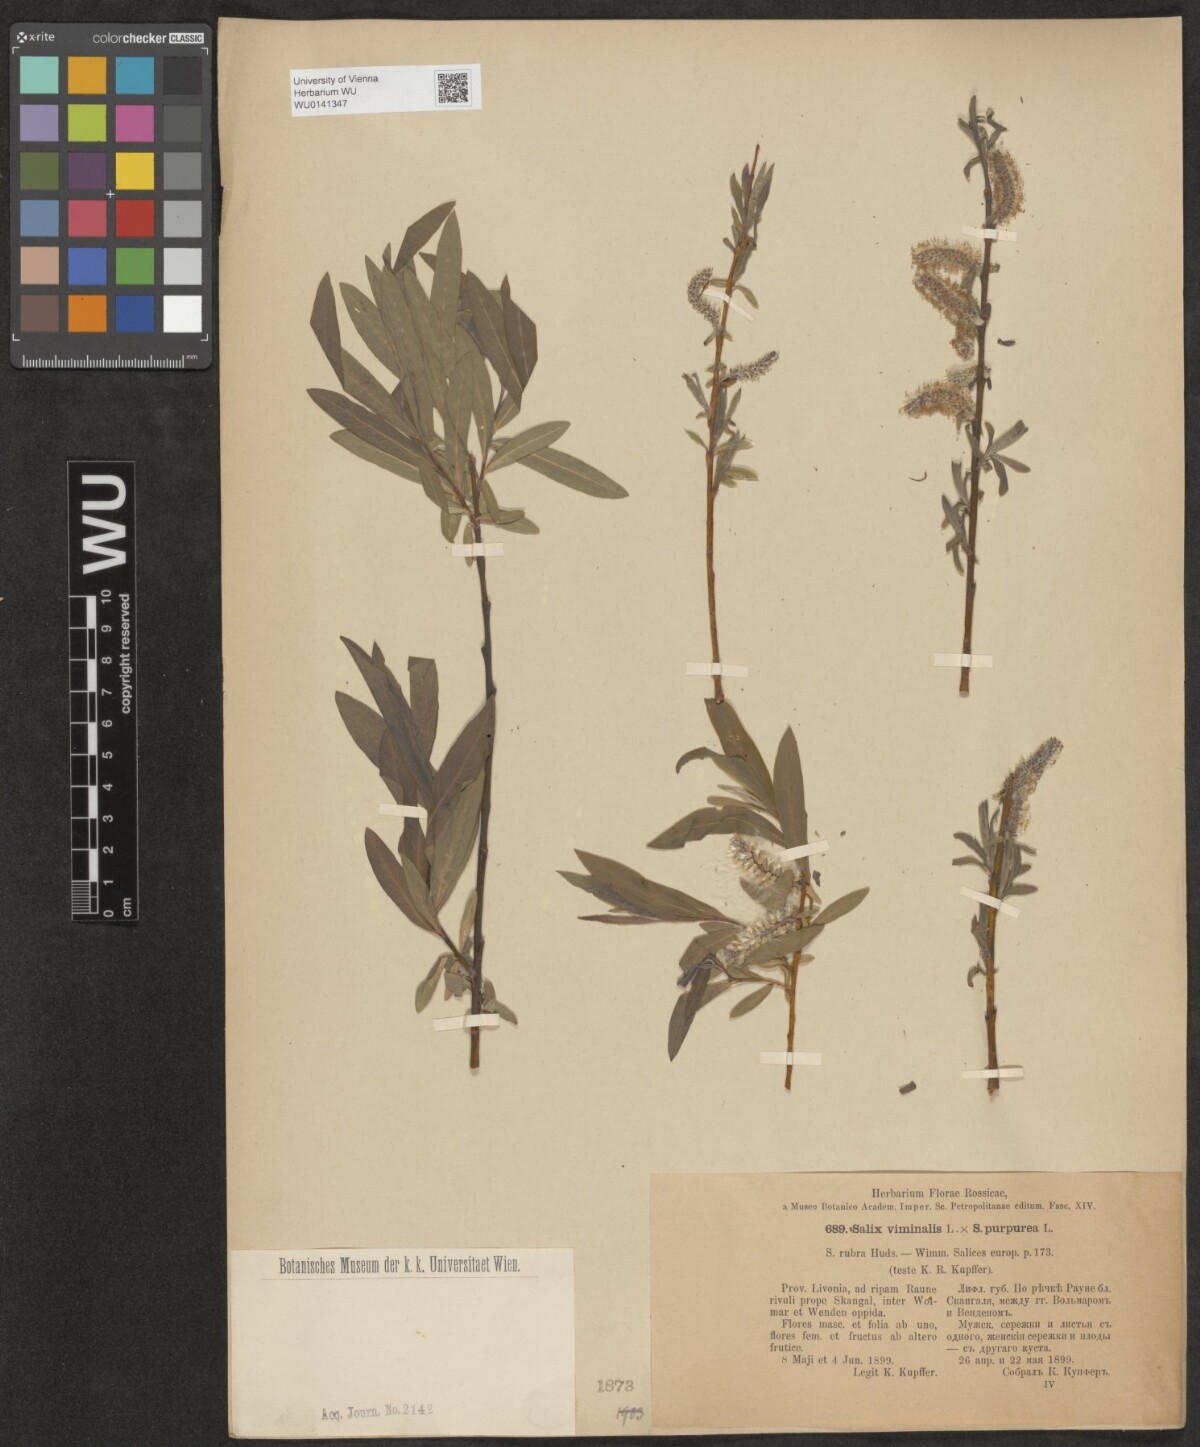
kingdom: Plantae
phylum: Tracheophyta
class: Magnoliopsida
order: Malpighiales
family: Salicaceae
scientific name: Salicaceae
